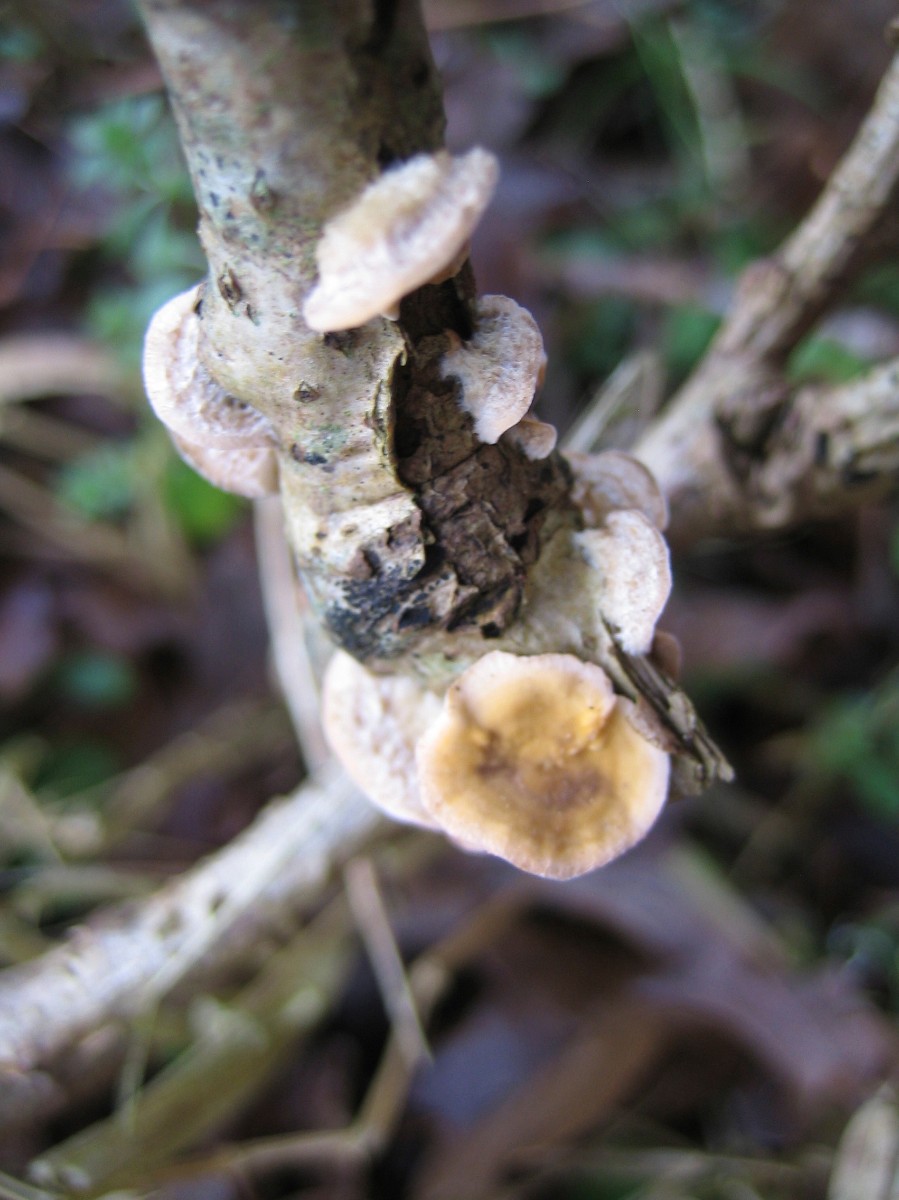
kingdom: Fungi
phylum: Basidiomycota
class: Agaricomycetes
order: Russulales
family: Stereaceae
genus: Stereum
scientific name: Stereum hirsutum
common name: håret lædersvamp
